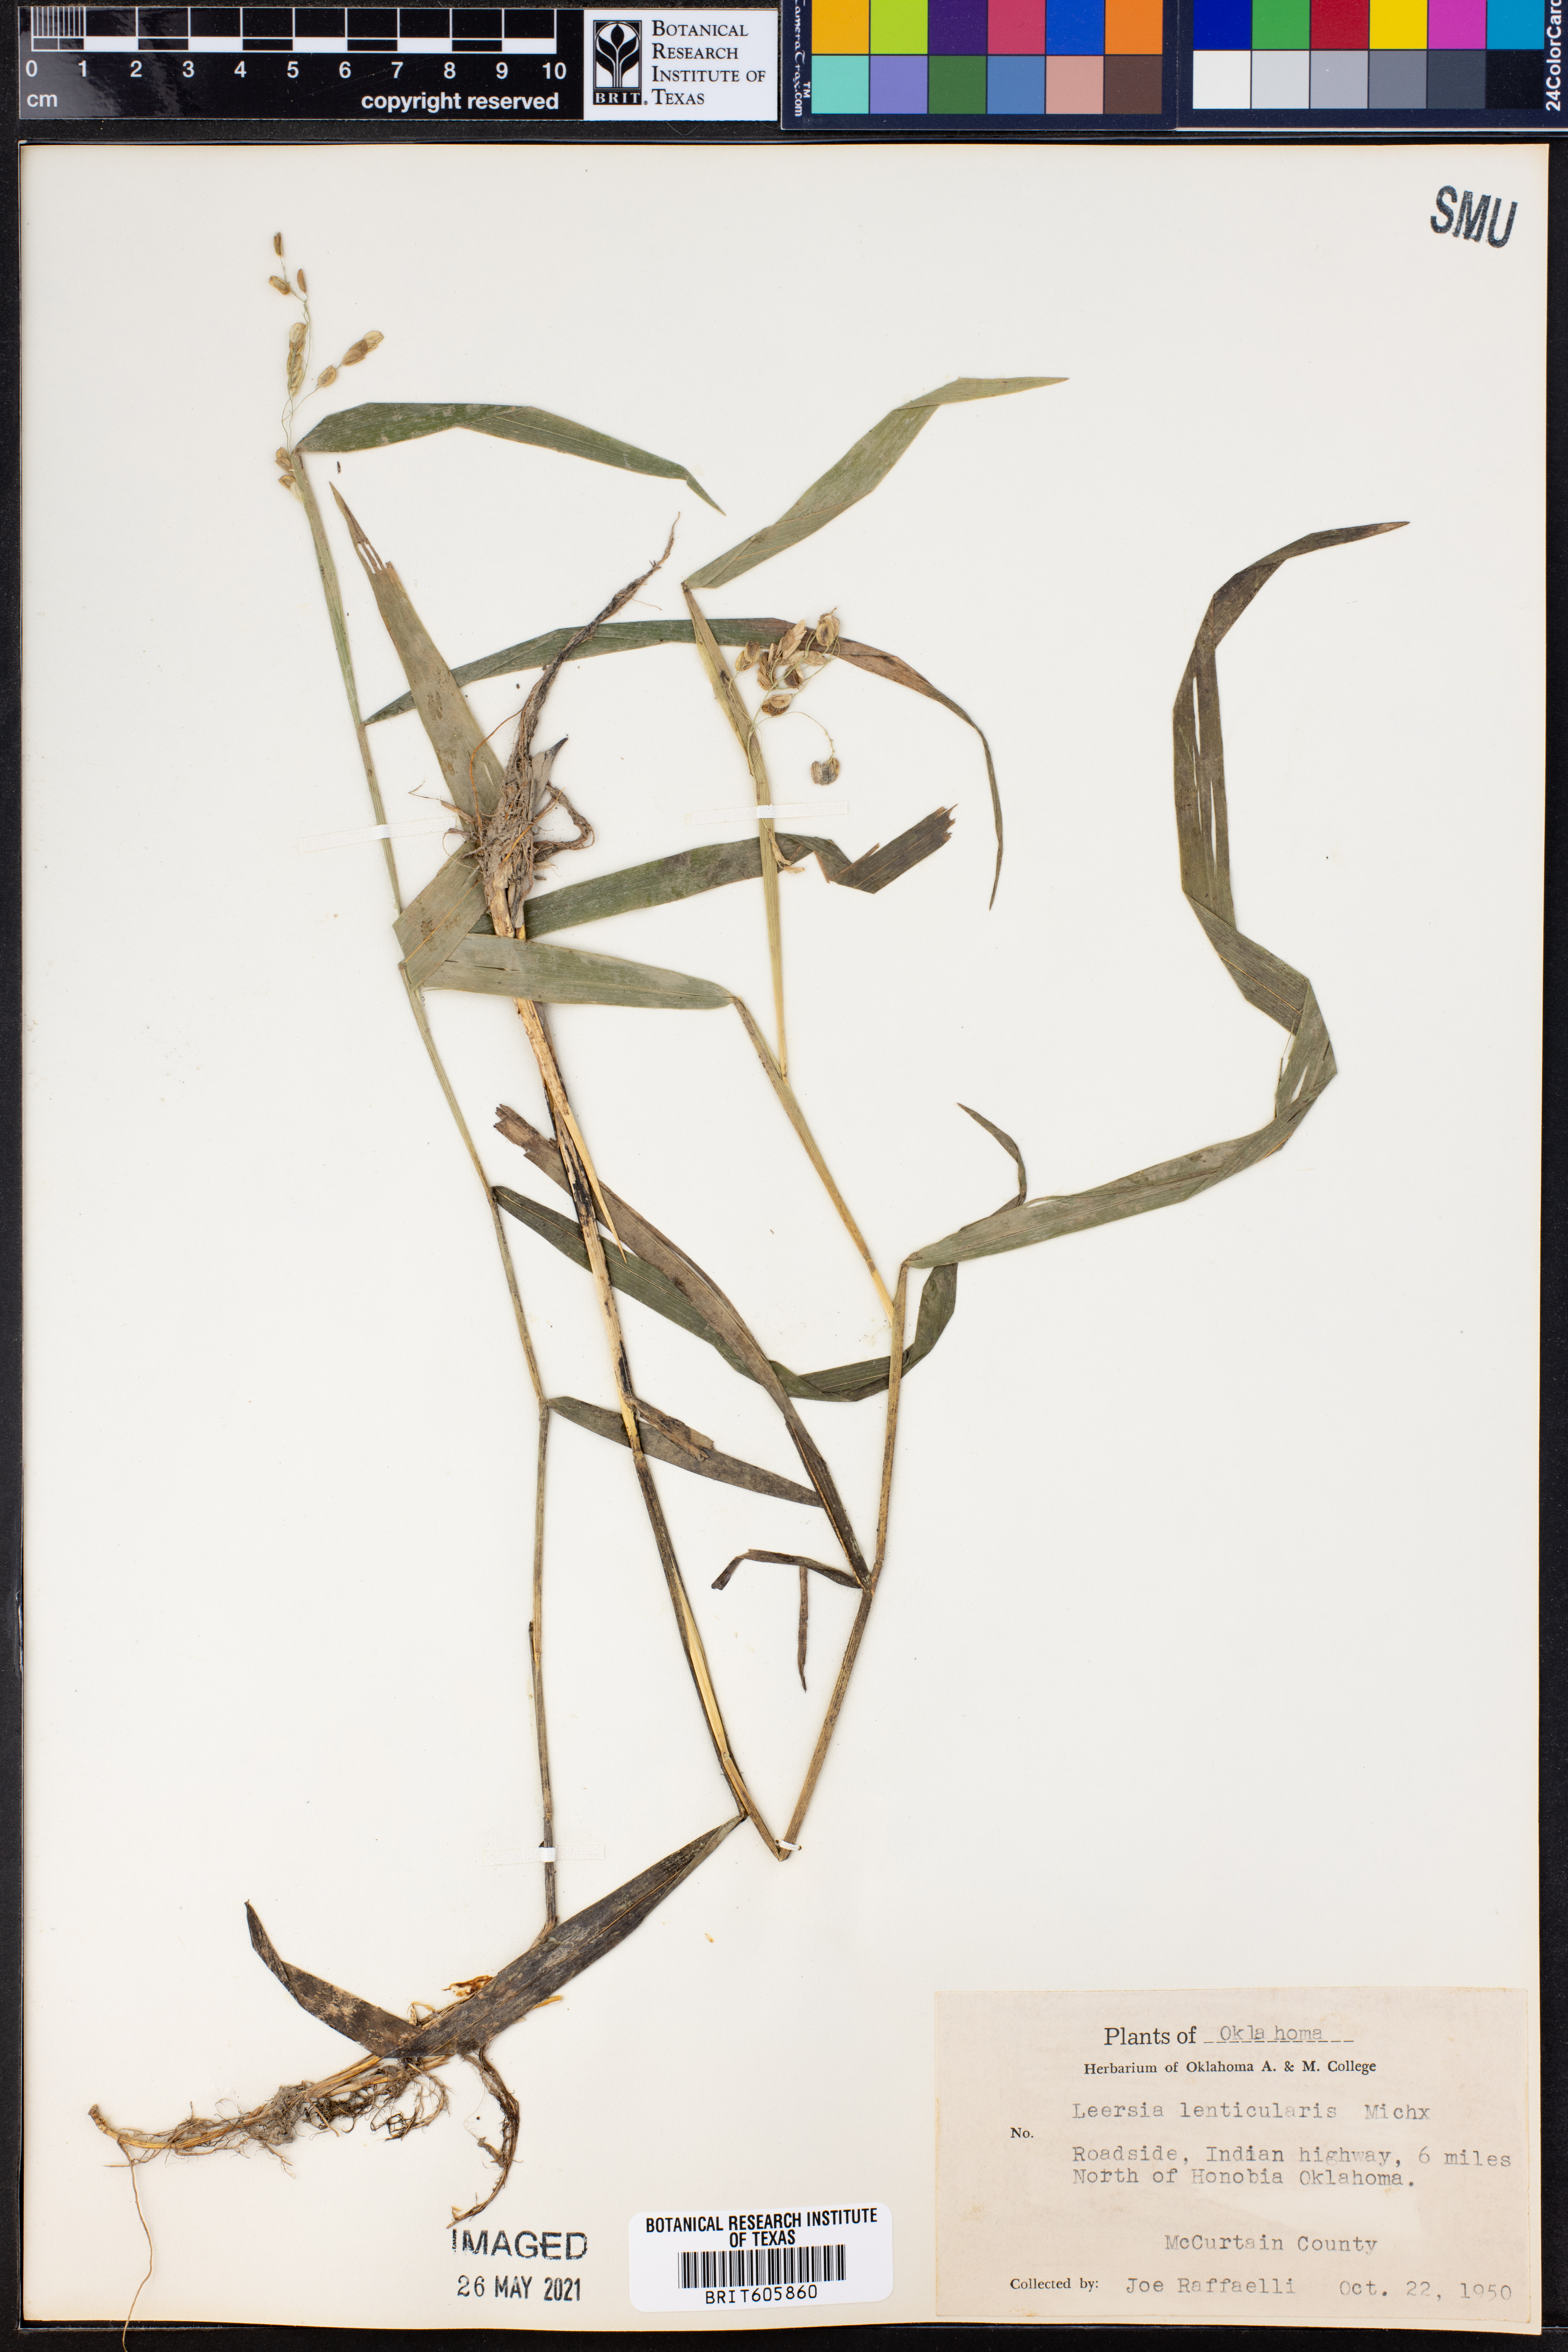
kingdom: Plantae
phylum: Tracheophyta
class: Liliopsida
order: Poales
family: Poaceae
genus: Leersia
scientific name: Leersia lenticularis
